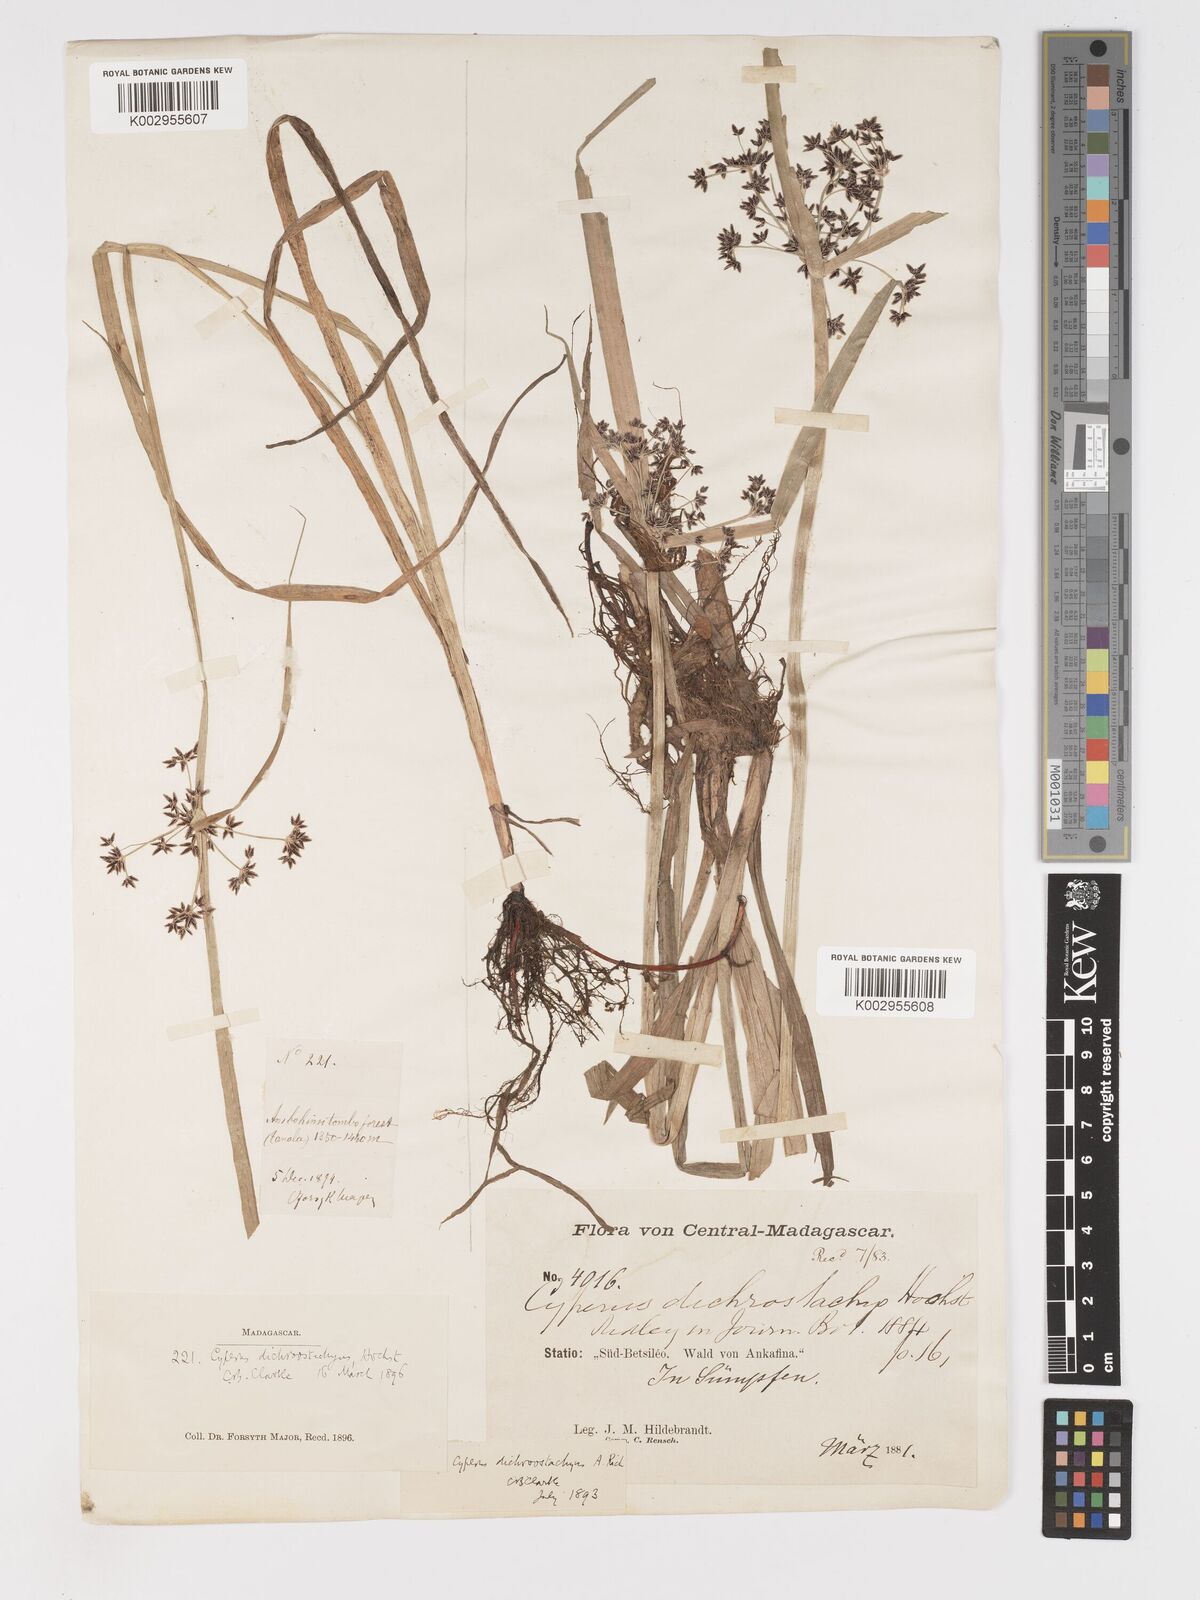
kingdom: Plantae
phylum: Tracheophyta
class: Liliopsida
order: Poales
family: Cyperaceae
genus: Cyperus
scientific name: Cyperus dichrostachyus
